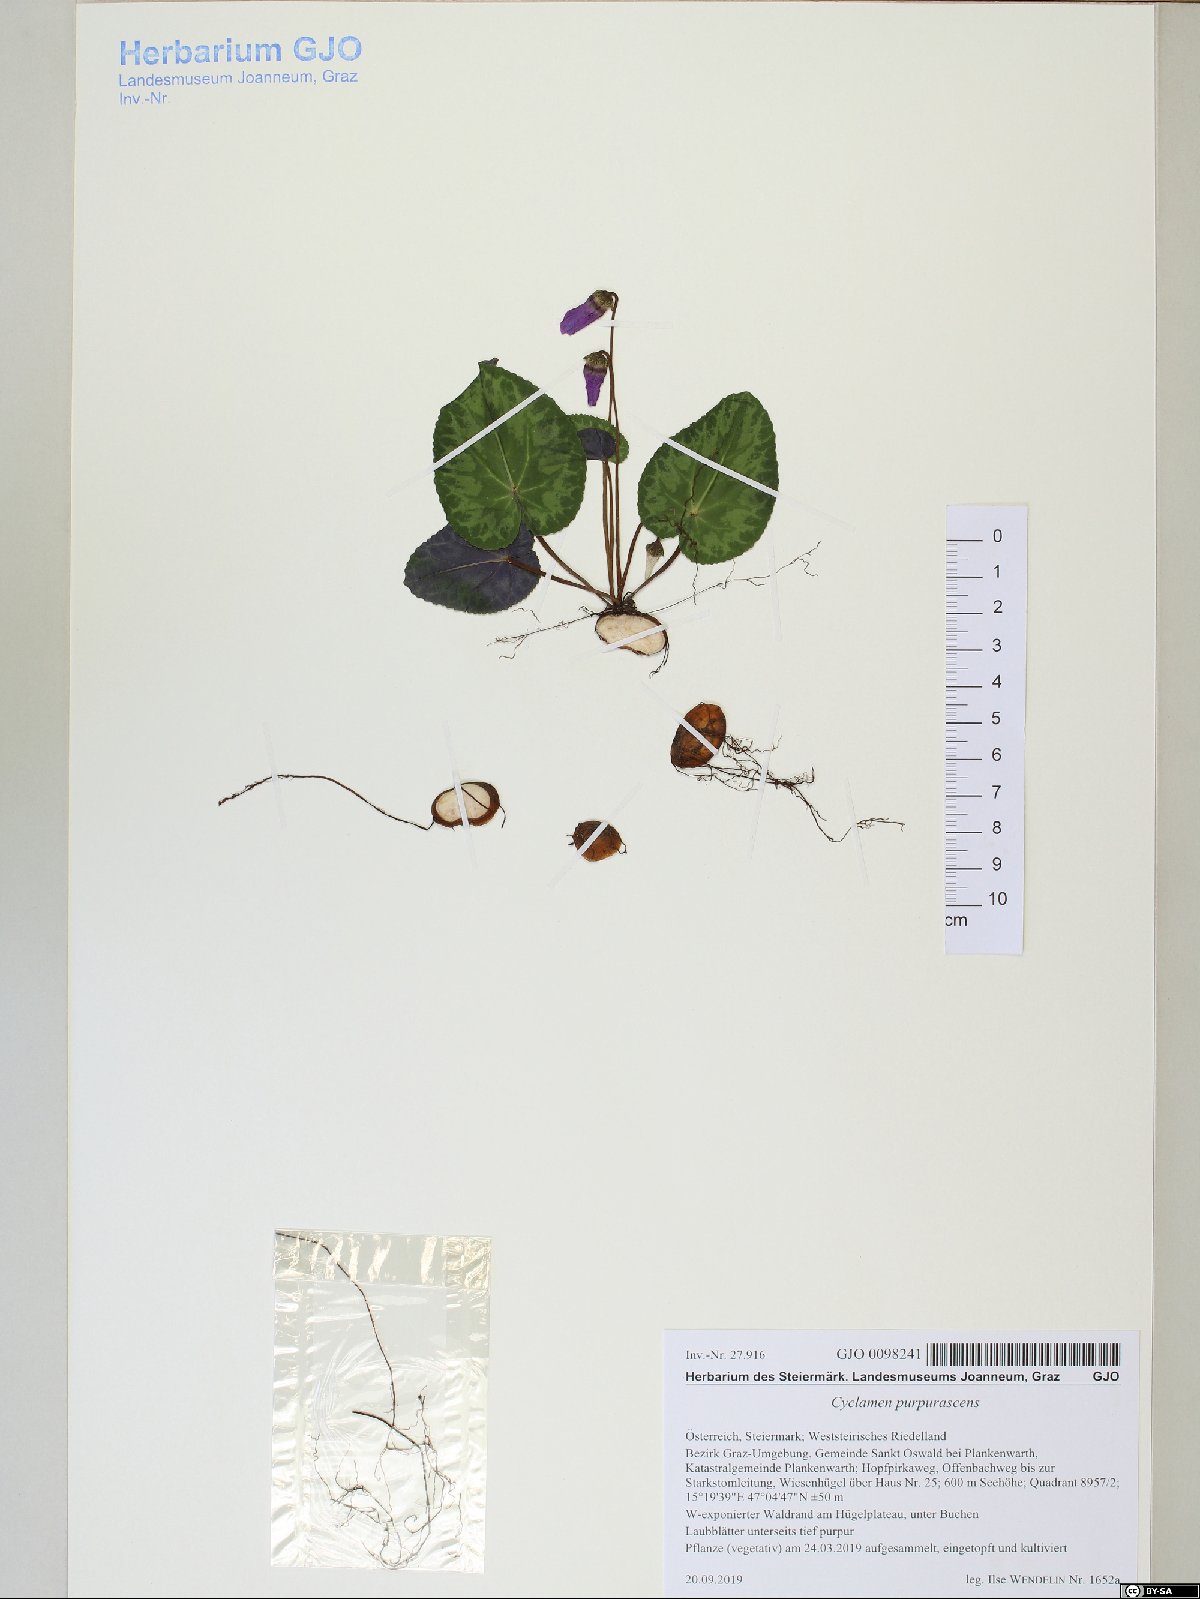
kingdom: Plantae
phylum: Tracheophyta
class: Magnoliopsida
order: Ericales
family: Primulaceae
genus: Cyclamen
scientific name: Cyclamen purpurascens
